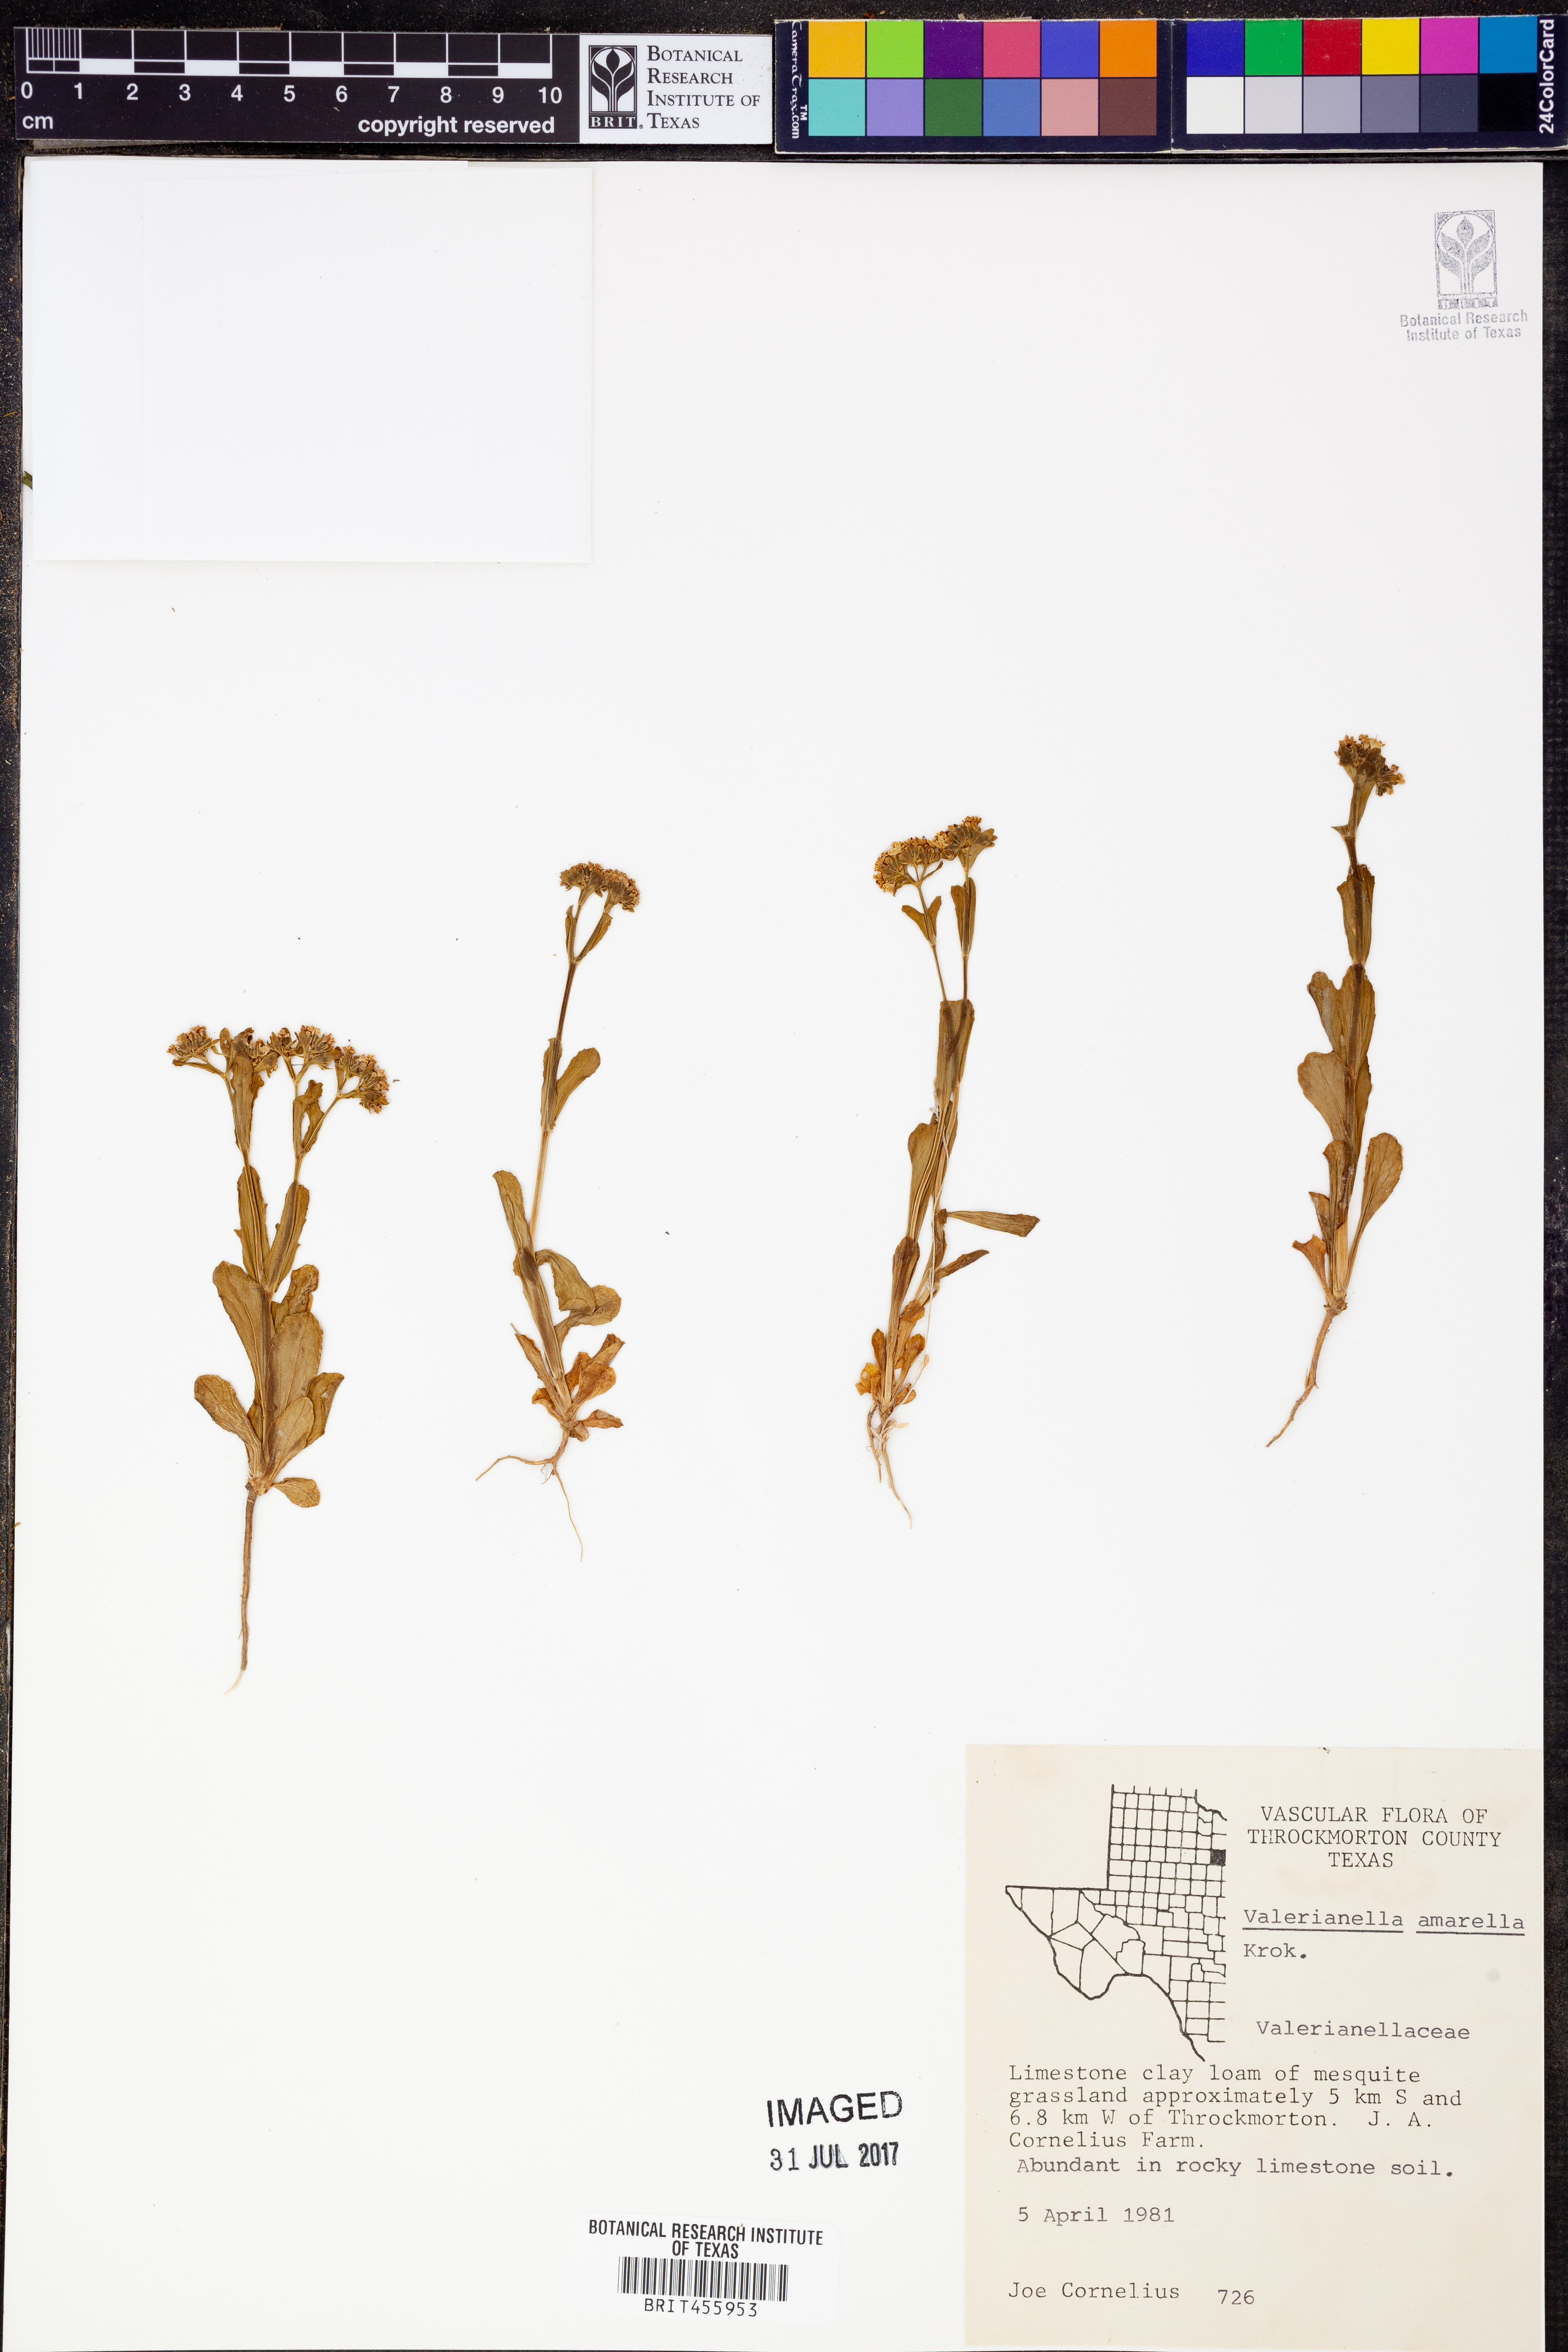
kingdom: Plantae
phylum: Tracheophyta
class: Magnoliopsida
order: Dipsacales
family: Caprifoliaceae
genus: Valerianella
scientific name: Valerianella amarella
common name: Hariy cornsalad
